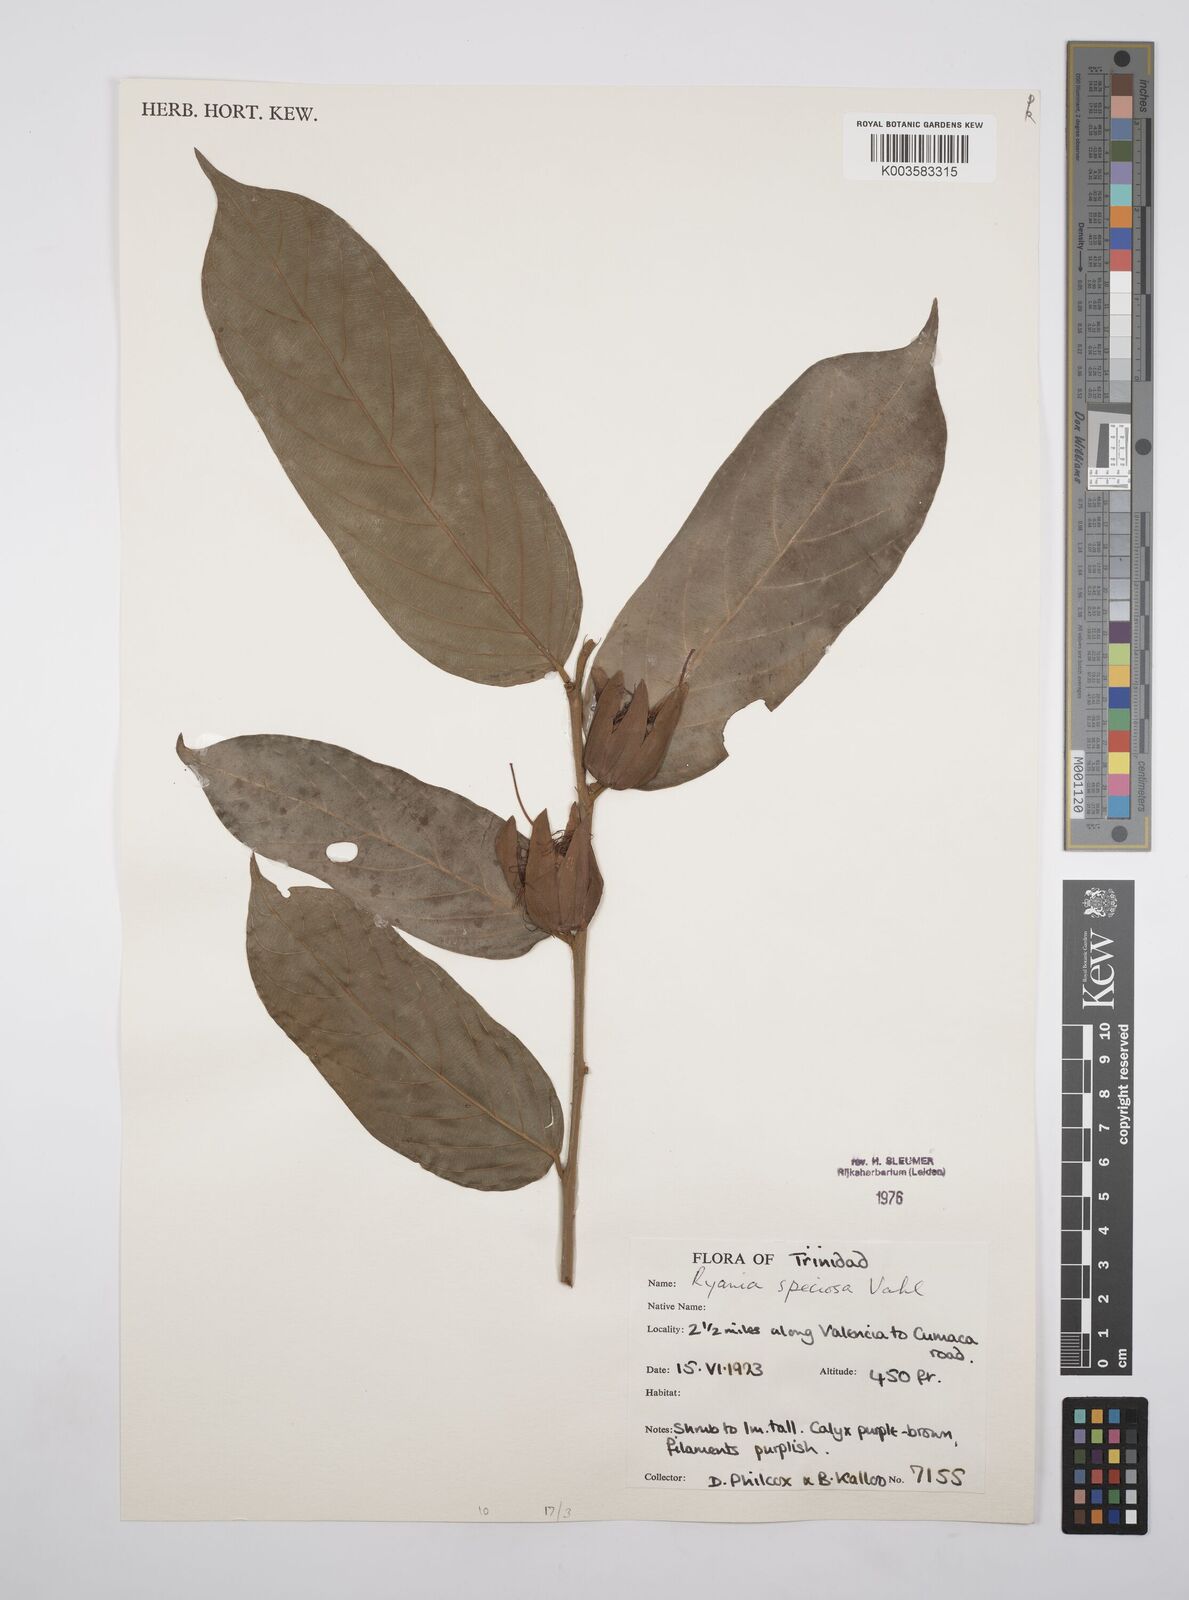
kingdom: Plantae
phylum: Tracheophyta
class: Magnoliopsida
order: Malpighiales
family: Salicaceae
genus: Ryania
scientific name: Ryania speciosa
